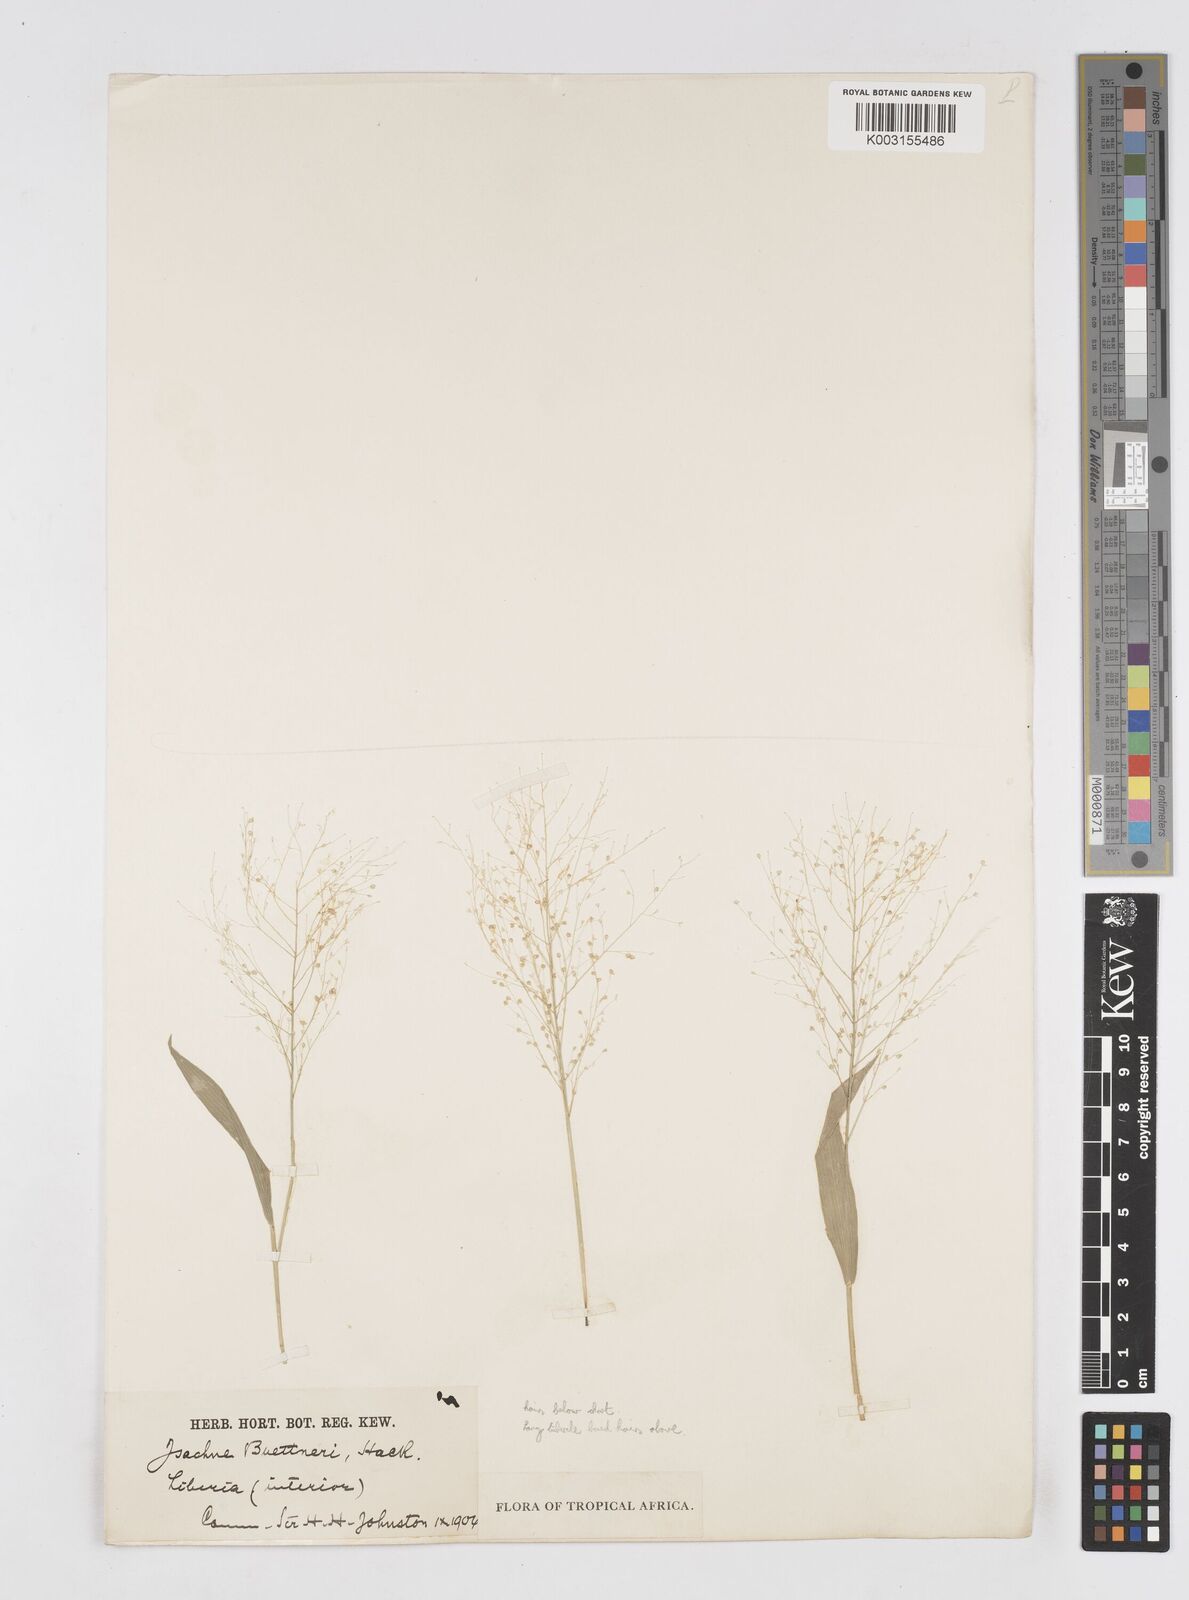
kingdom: Plantae
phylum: Tracheophyta
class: Liliopsida
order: Poales
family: Poaceae
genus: Isachne
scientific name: Isachne albens
